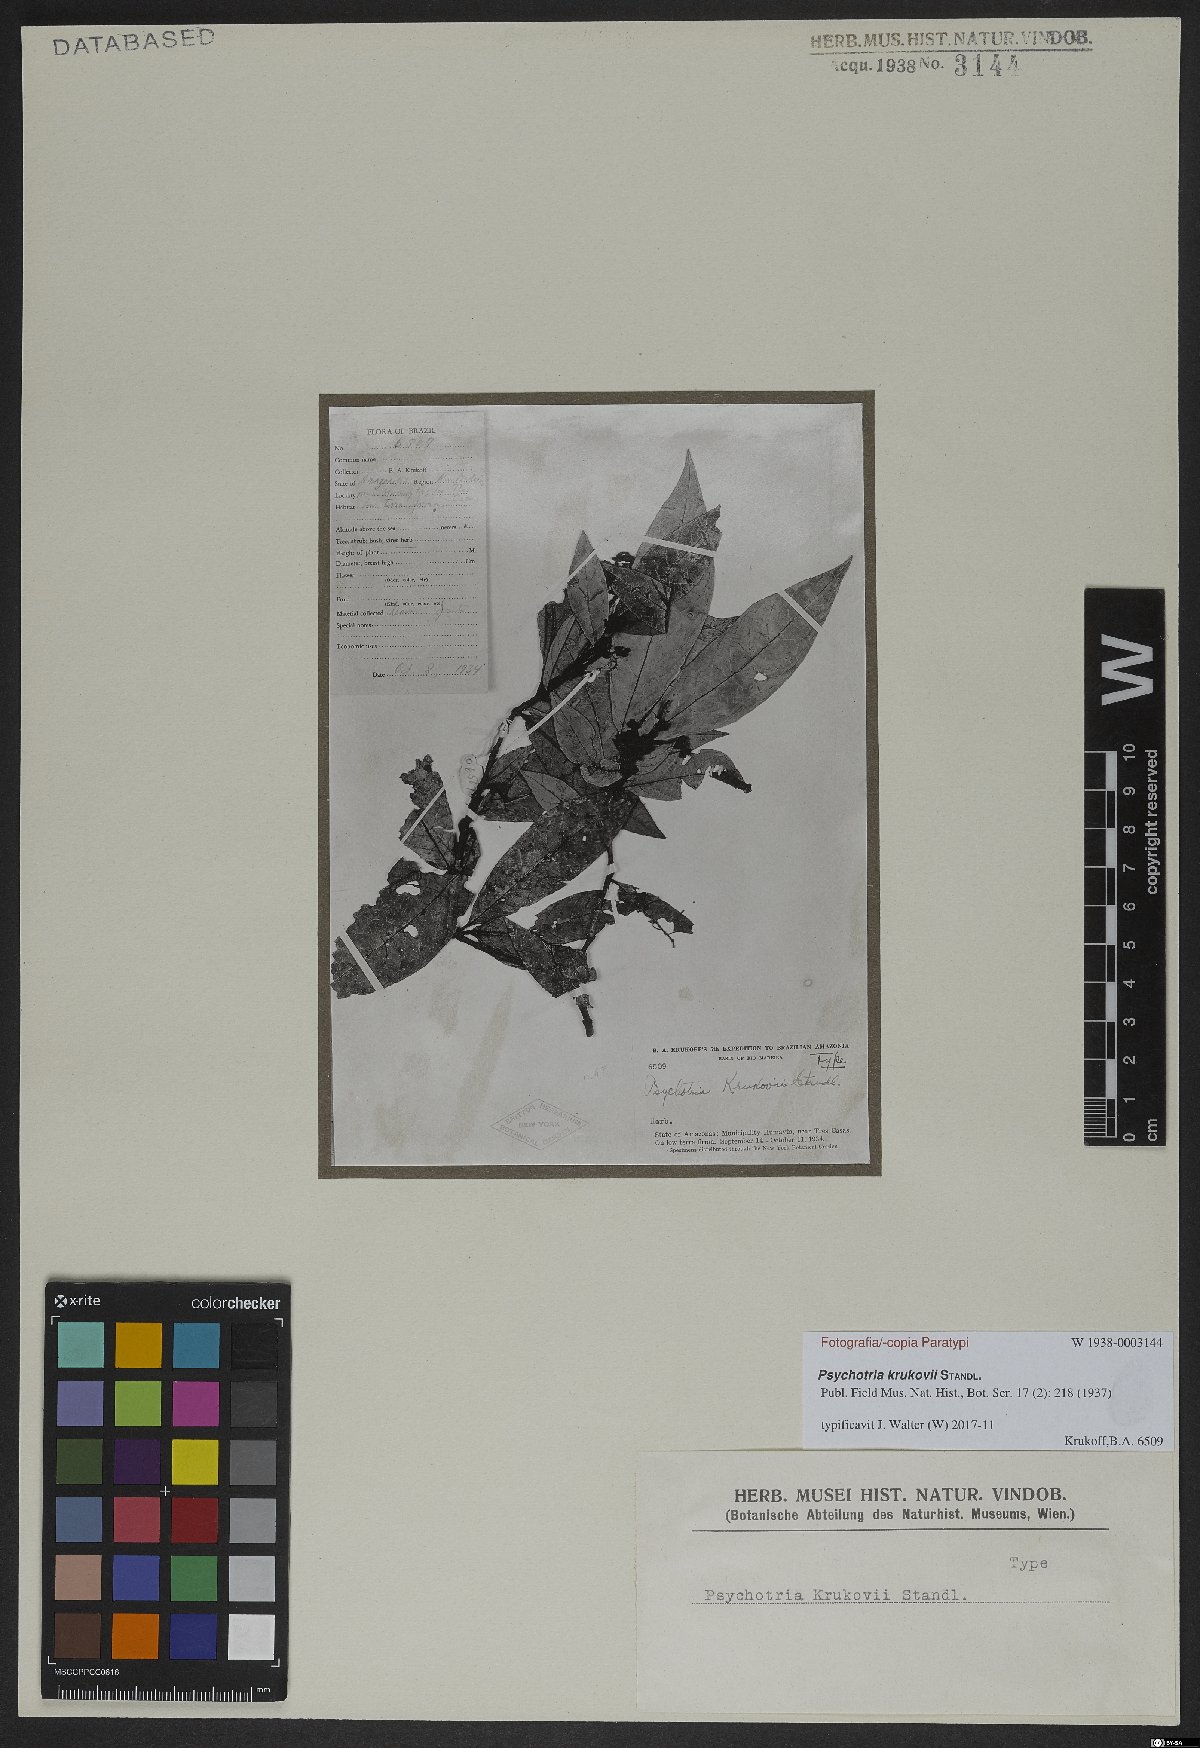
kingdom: Plantae
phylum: Tracheophyta
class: Magnoliopsida
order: Gentianales
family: Rubiaceae
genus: Psychotria
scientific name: Psychotria krukovii
